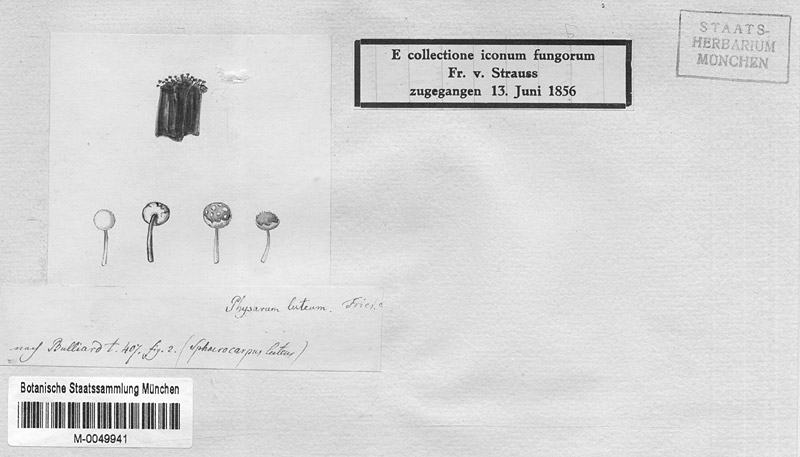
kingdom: Protozoa
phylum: Mycetozoa
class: Myxomycetes
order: Physarales
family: Physaraceae
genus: Physarum
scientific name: Physarum viride
